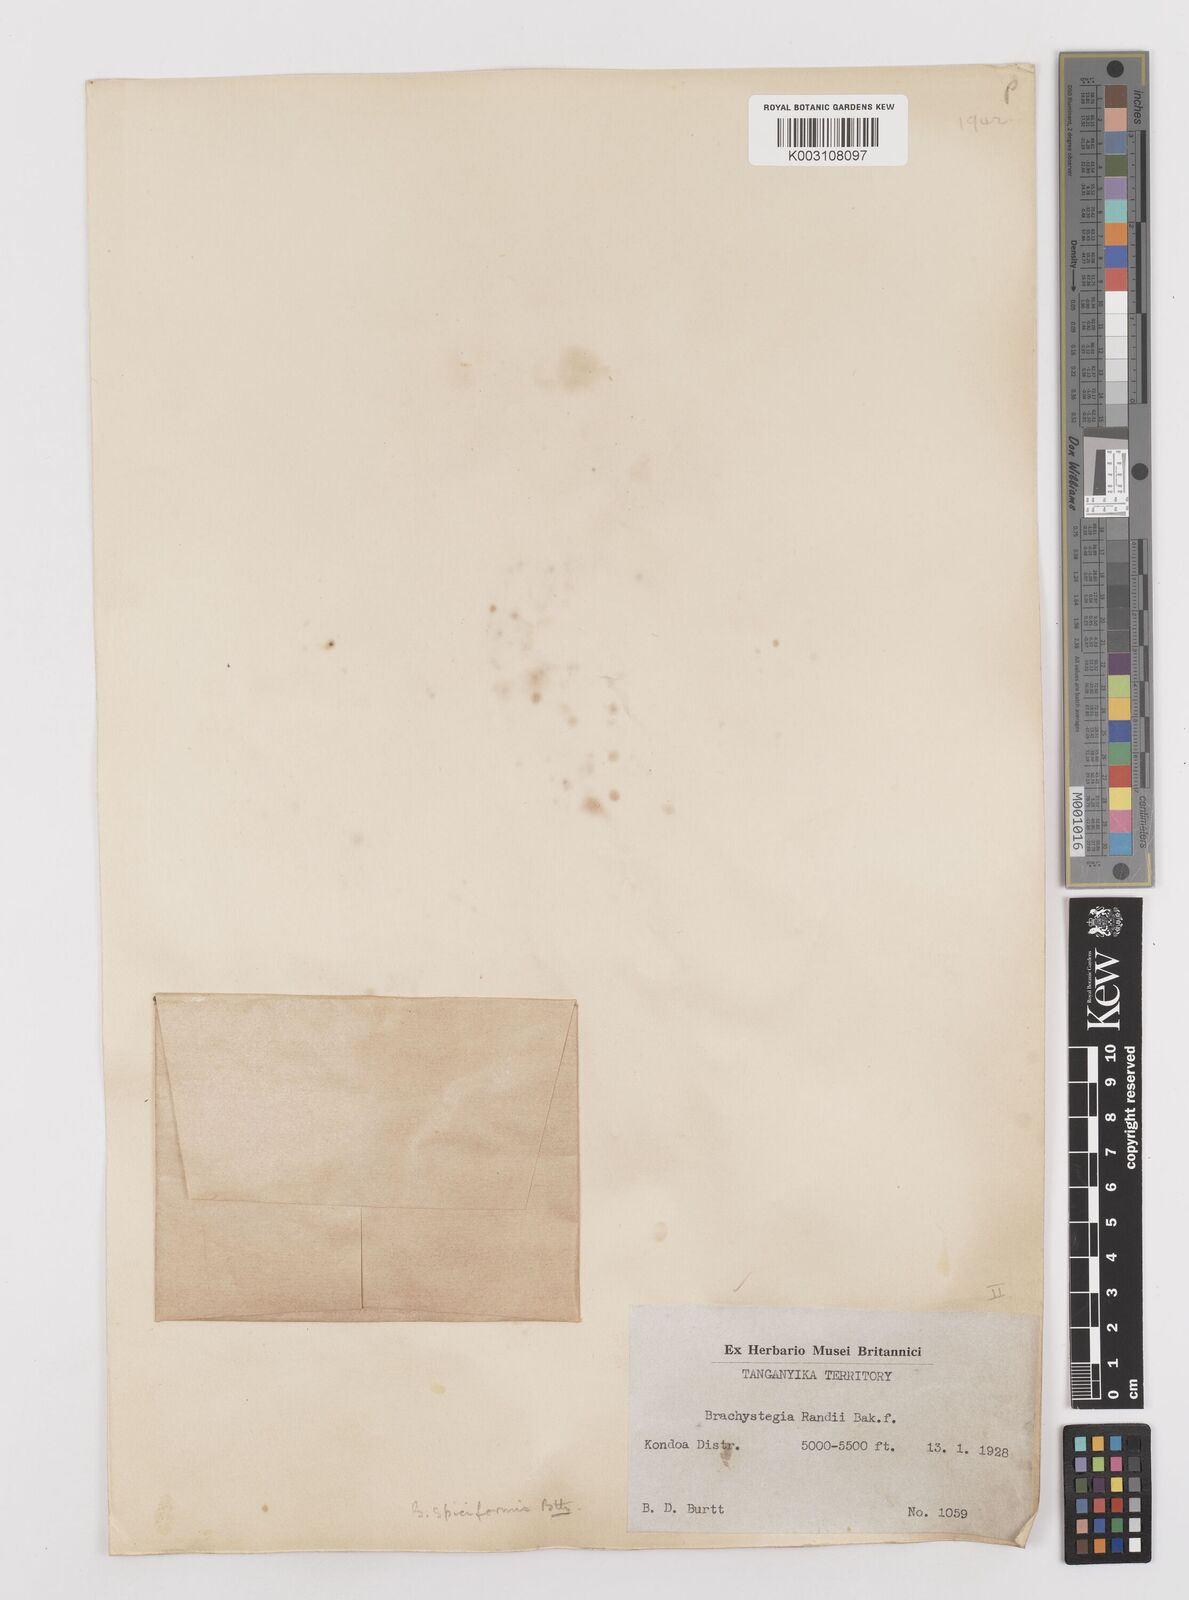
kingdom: Plantae
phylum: Tracheophyta
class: Magnoliopsida
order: Fabales
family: Fabaceae
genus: Brachystegia
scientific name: Brachystegia spiciformis
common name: Zebrawood
